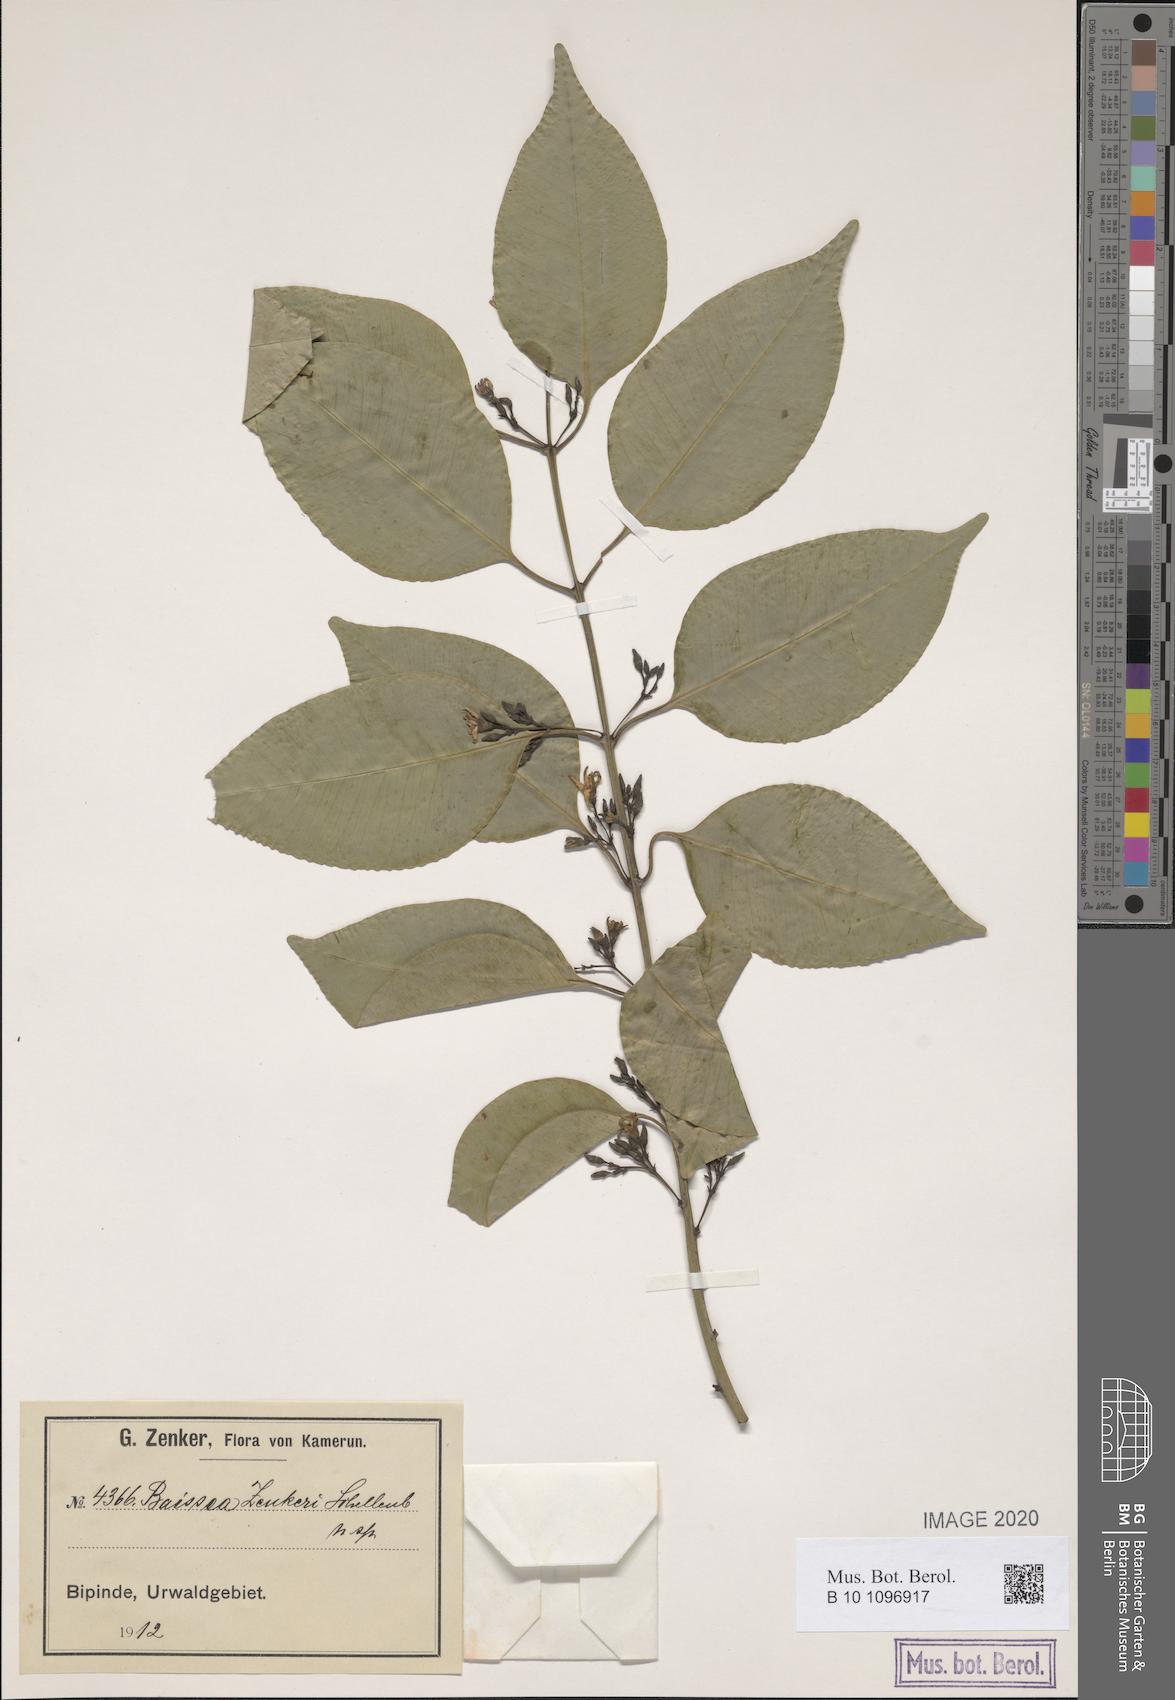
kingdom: Plantae
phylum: Tracheophyta
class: Magnoliopsida
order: Gentianales
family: Apocynaceae
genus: Baissea
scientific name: Baissea leonensis
